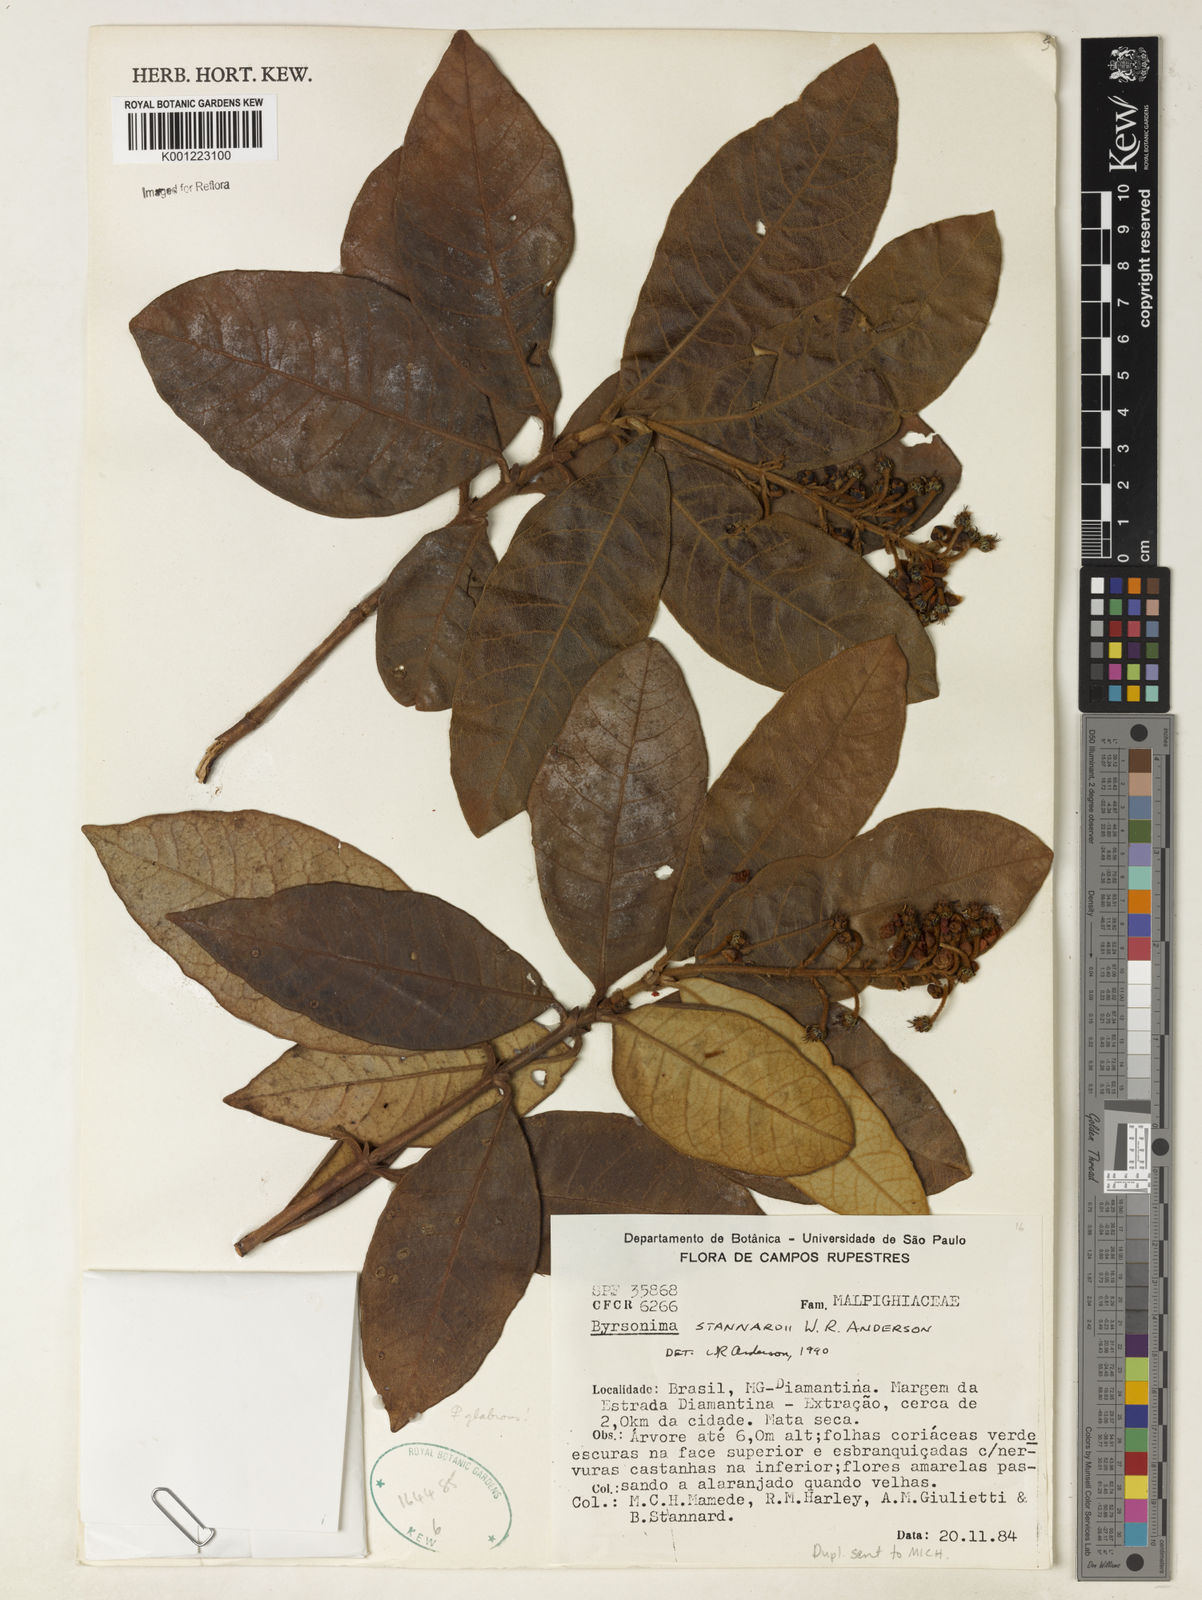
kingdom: Plantae
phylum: Tracheophyta
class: Magnoliopsida
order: Malpighiales
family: Malpighiaceae
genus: Byrsonima
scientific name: Byrsonima stannardii
